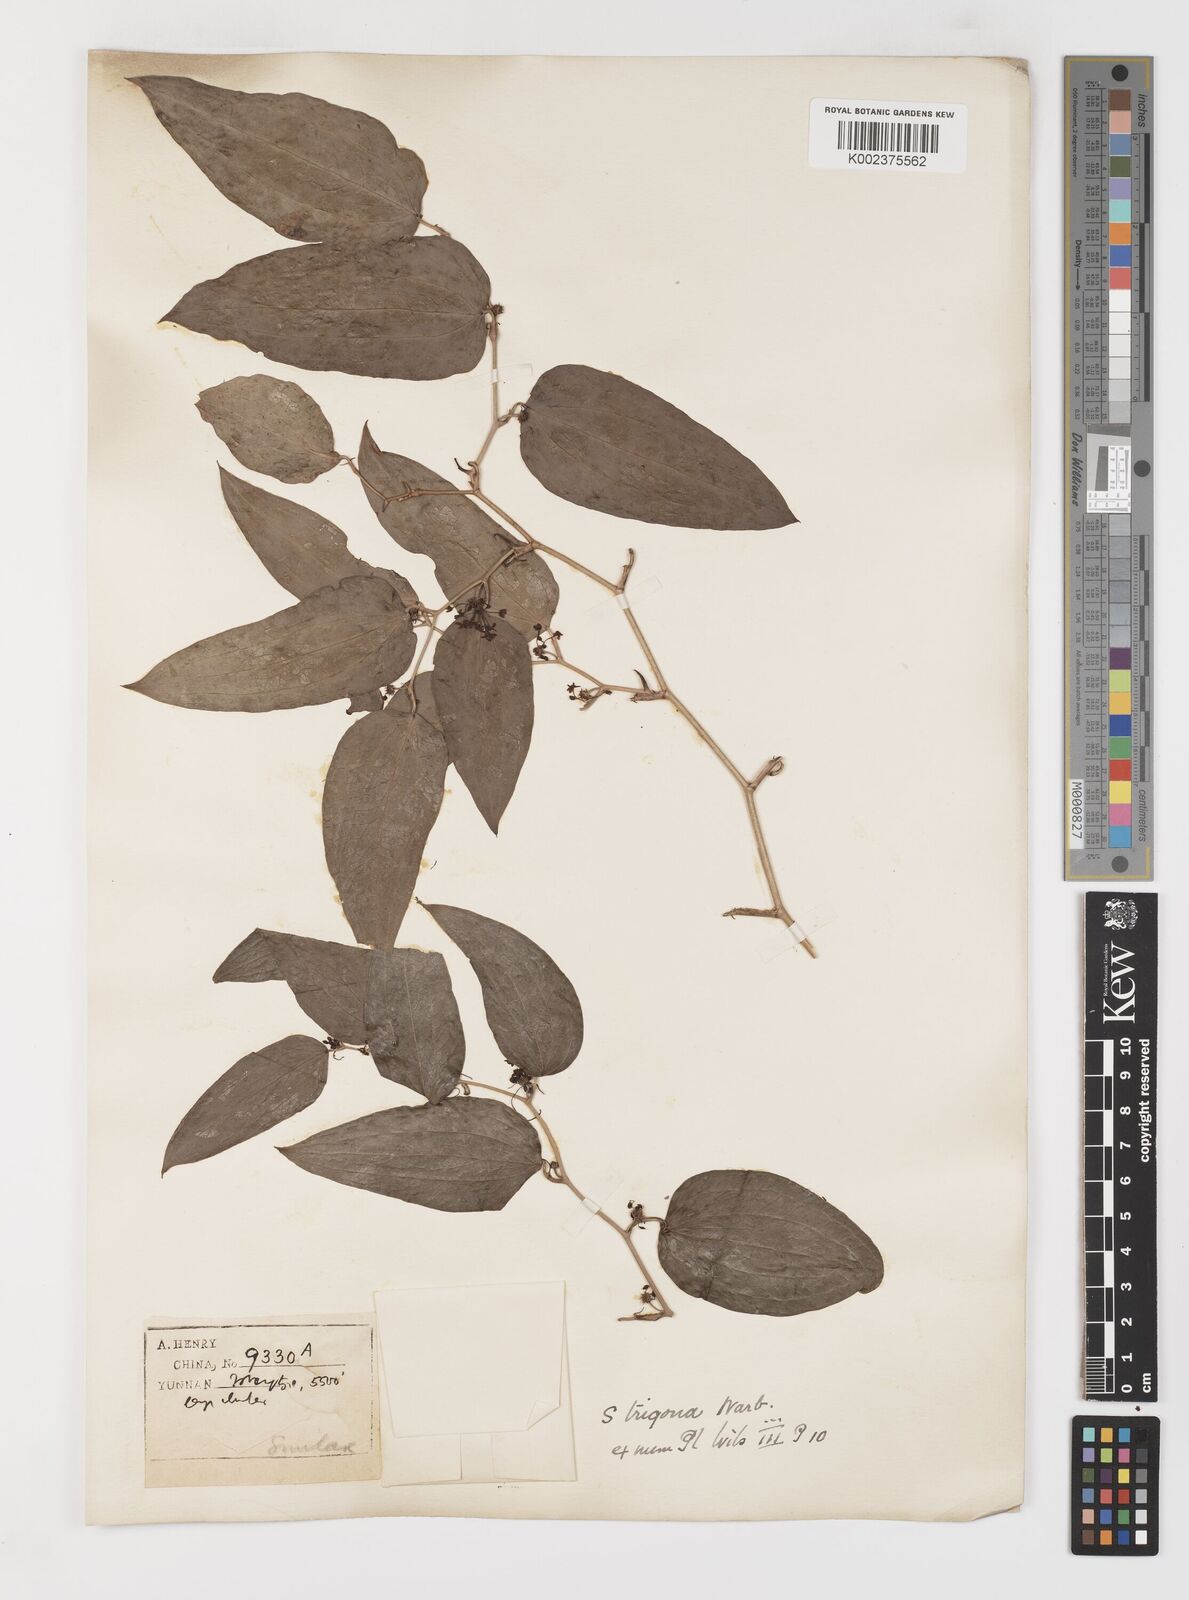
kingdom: Plantae
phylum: Tracheophyta
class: Liliopsida
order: Liliales
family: Smilacaceae
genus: Smilax
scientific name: Smilax lanceifolia
